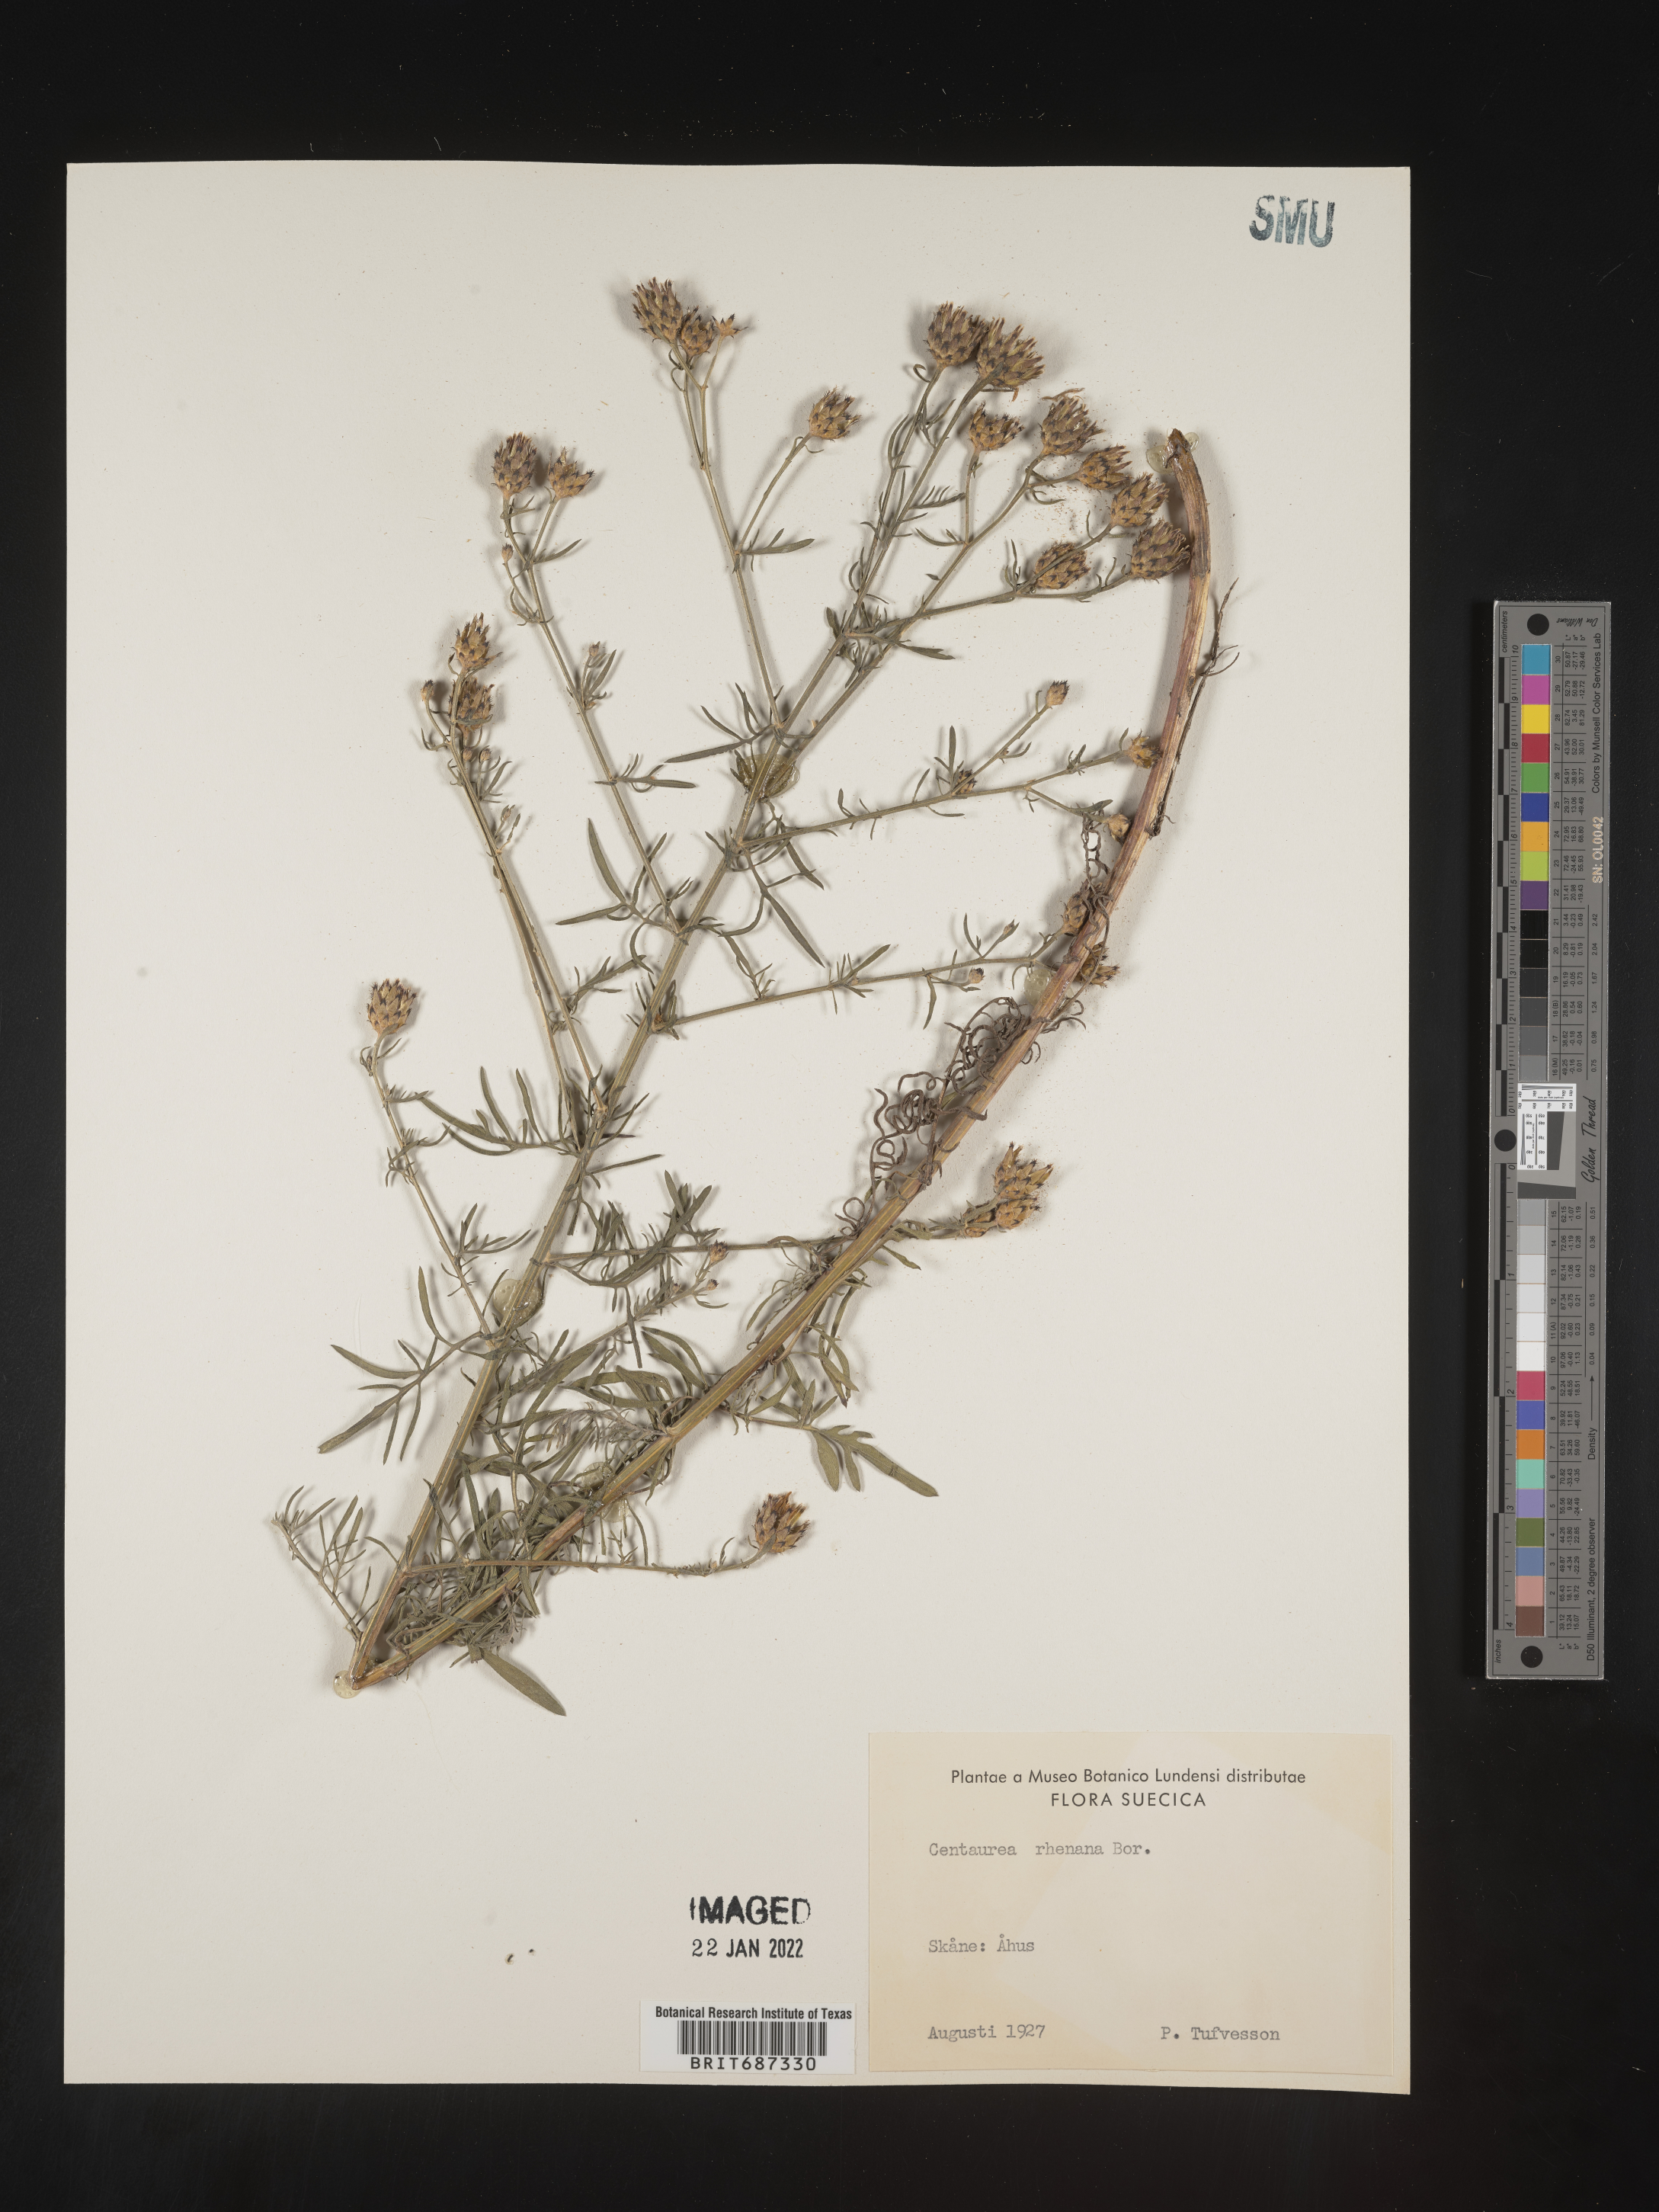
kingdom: Plantae
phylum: Tracheophyta
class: Magnoliopsida
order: Asterales
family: Asteraceae
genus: Centaurea
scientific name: Centaurea
